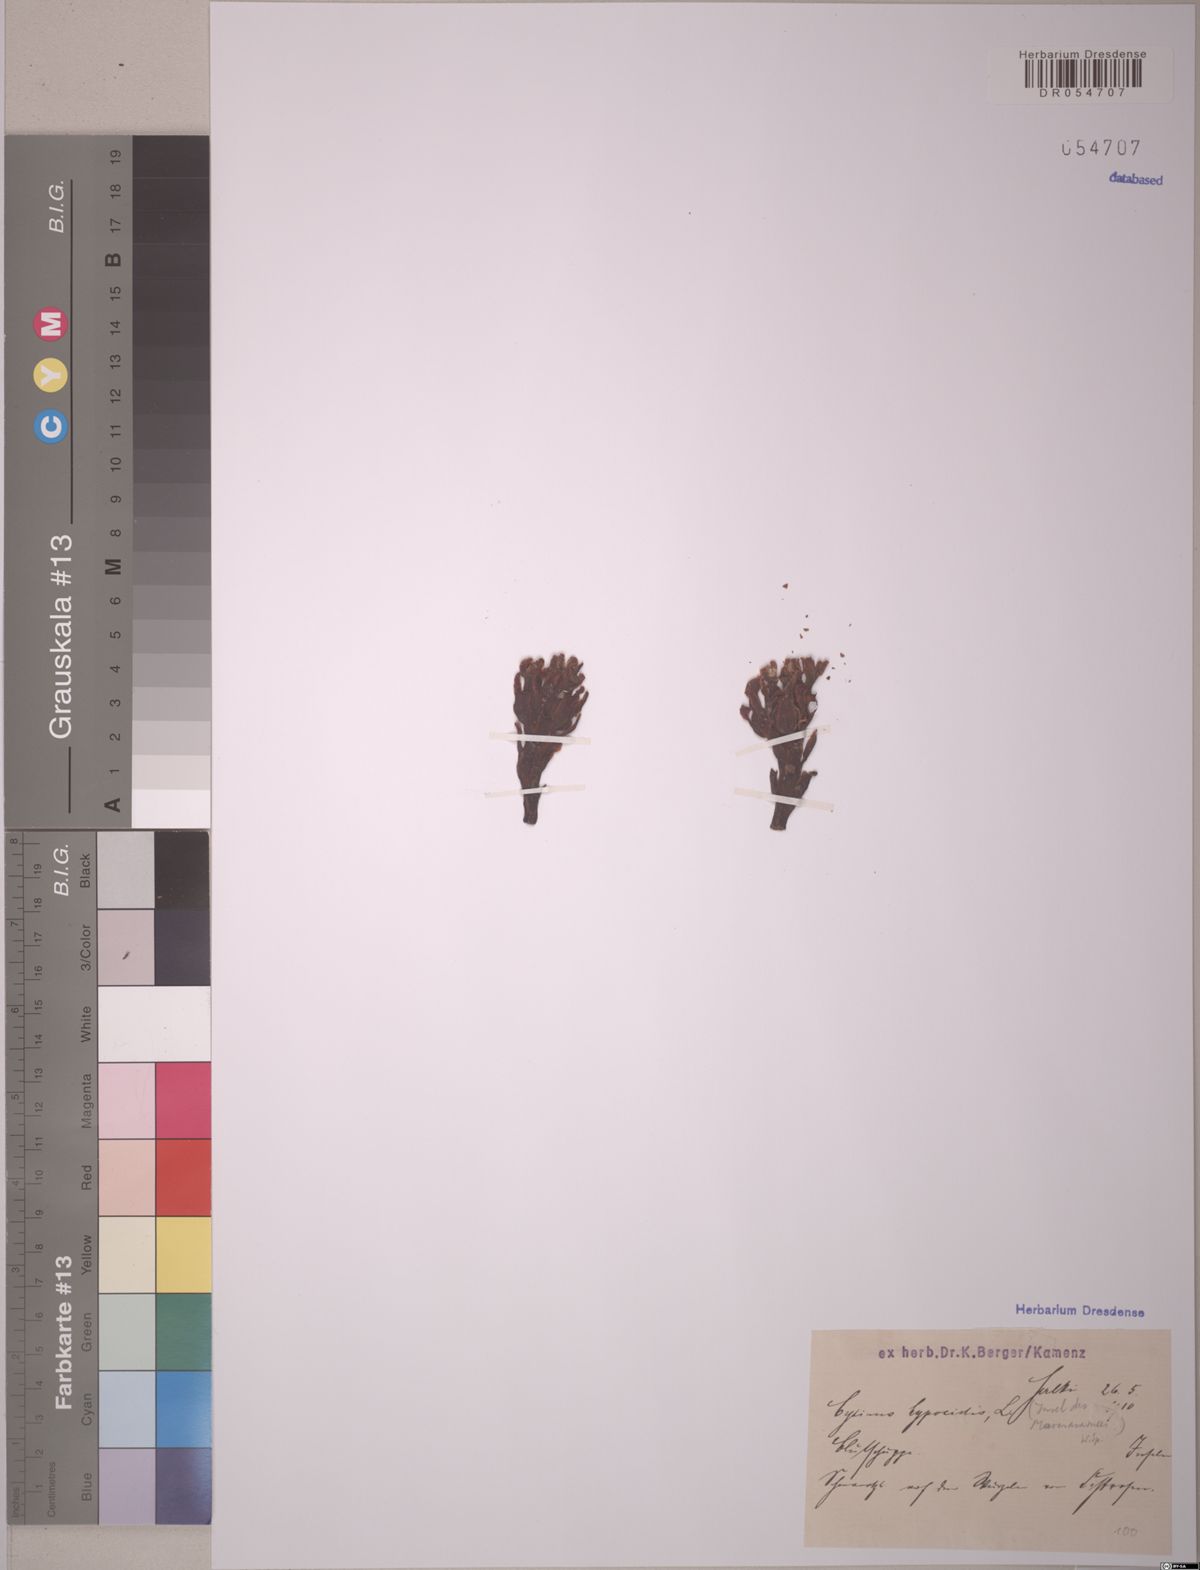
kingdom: Plantae
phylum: Tracheophyta
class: Magnoliopsida
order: Malvales
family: Cytinaceae
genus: Cytinus
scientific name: Cytinus hypocistis
